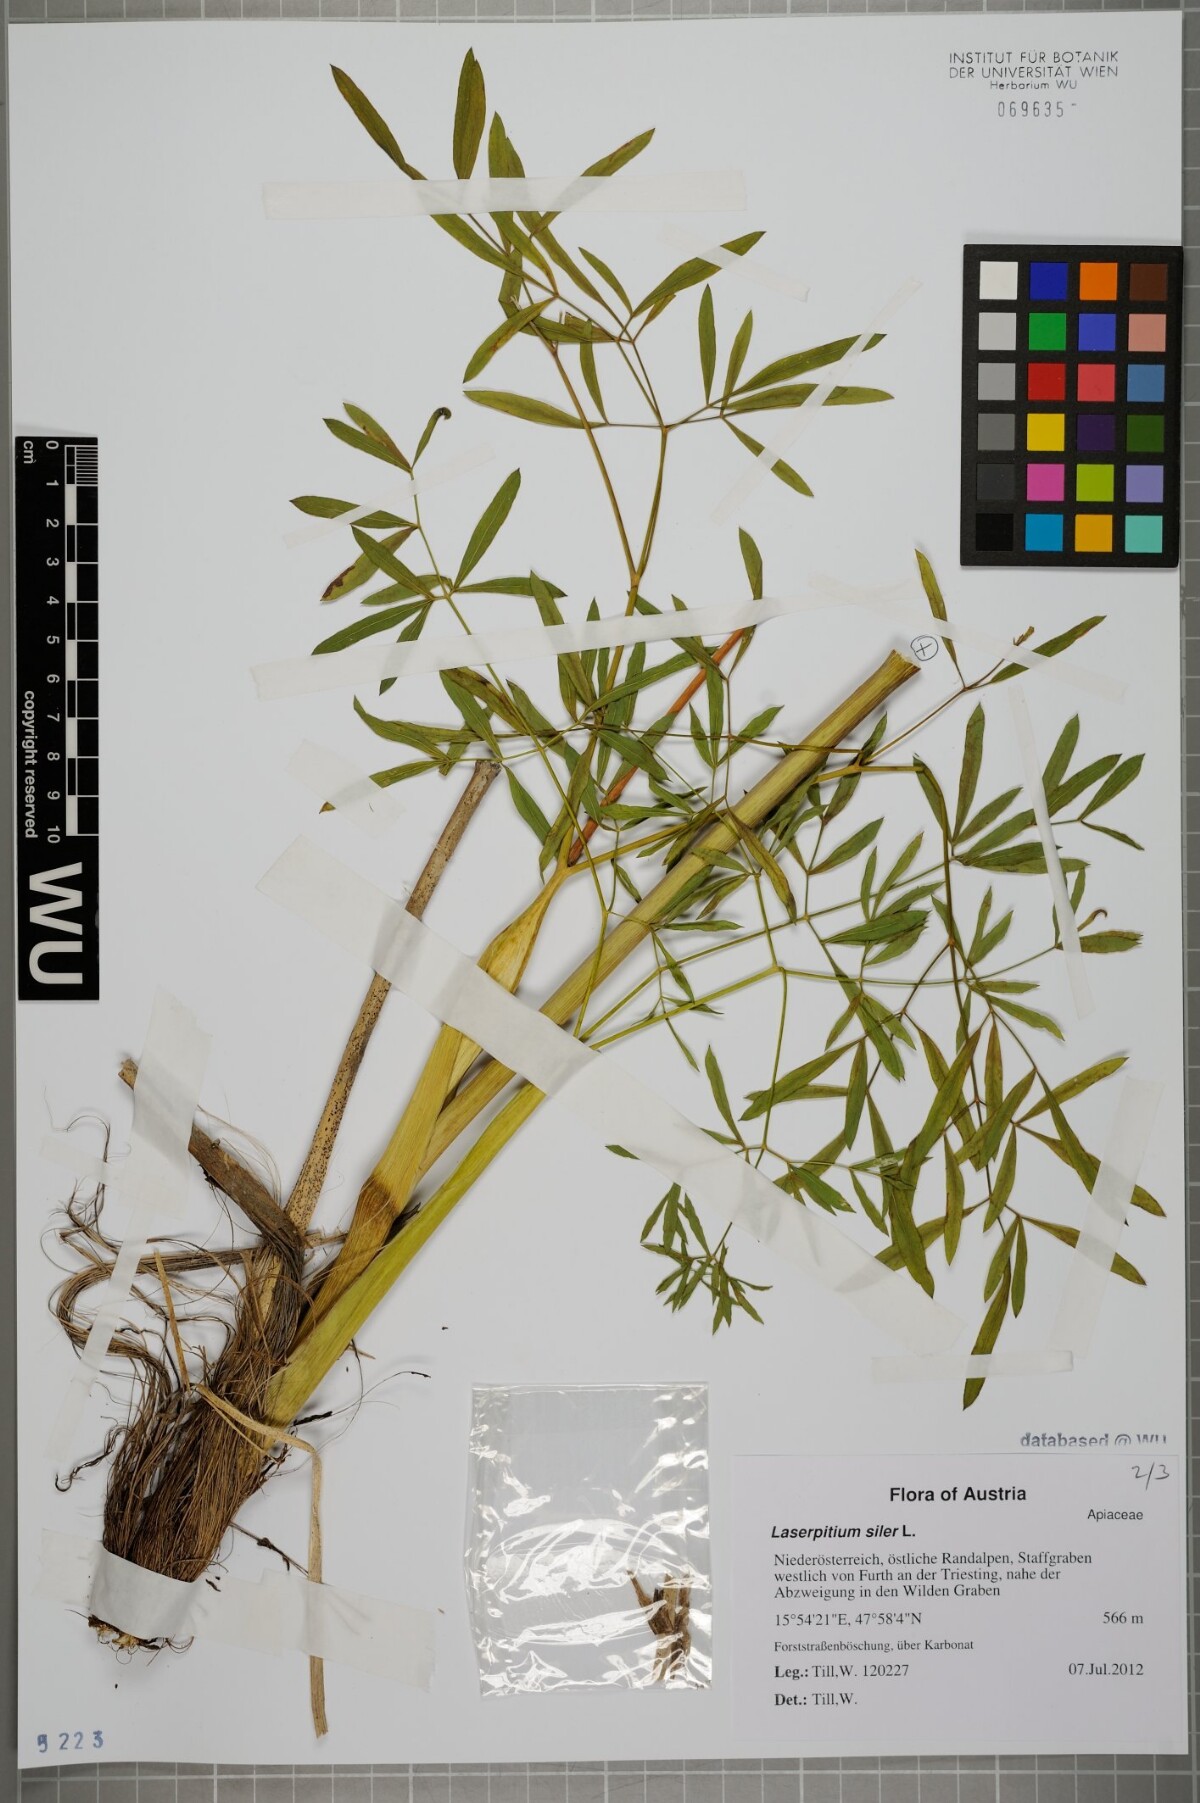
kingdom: Plantae
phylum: Tracheophyta
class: Magnoliopsida
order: Apiales
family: Apiaceae
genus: Siler
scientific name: Siler montanum
